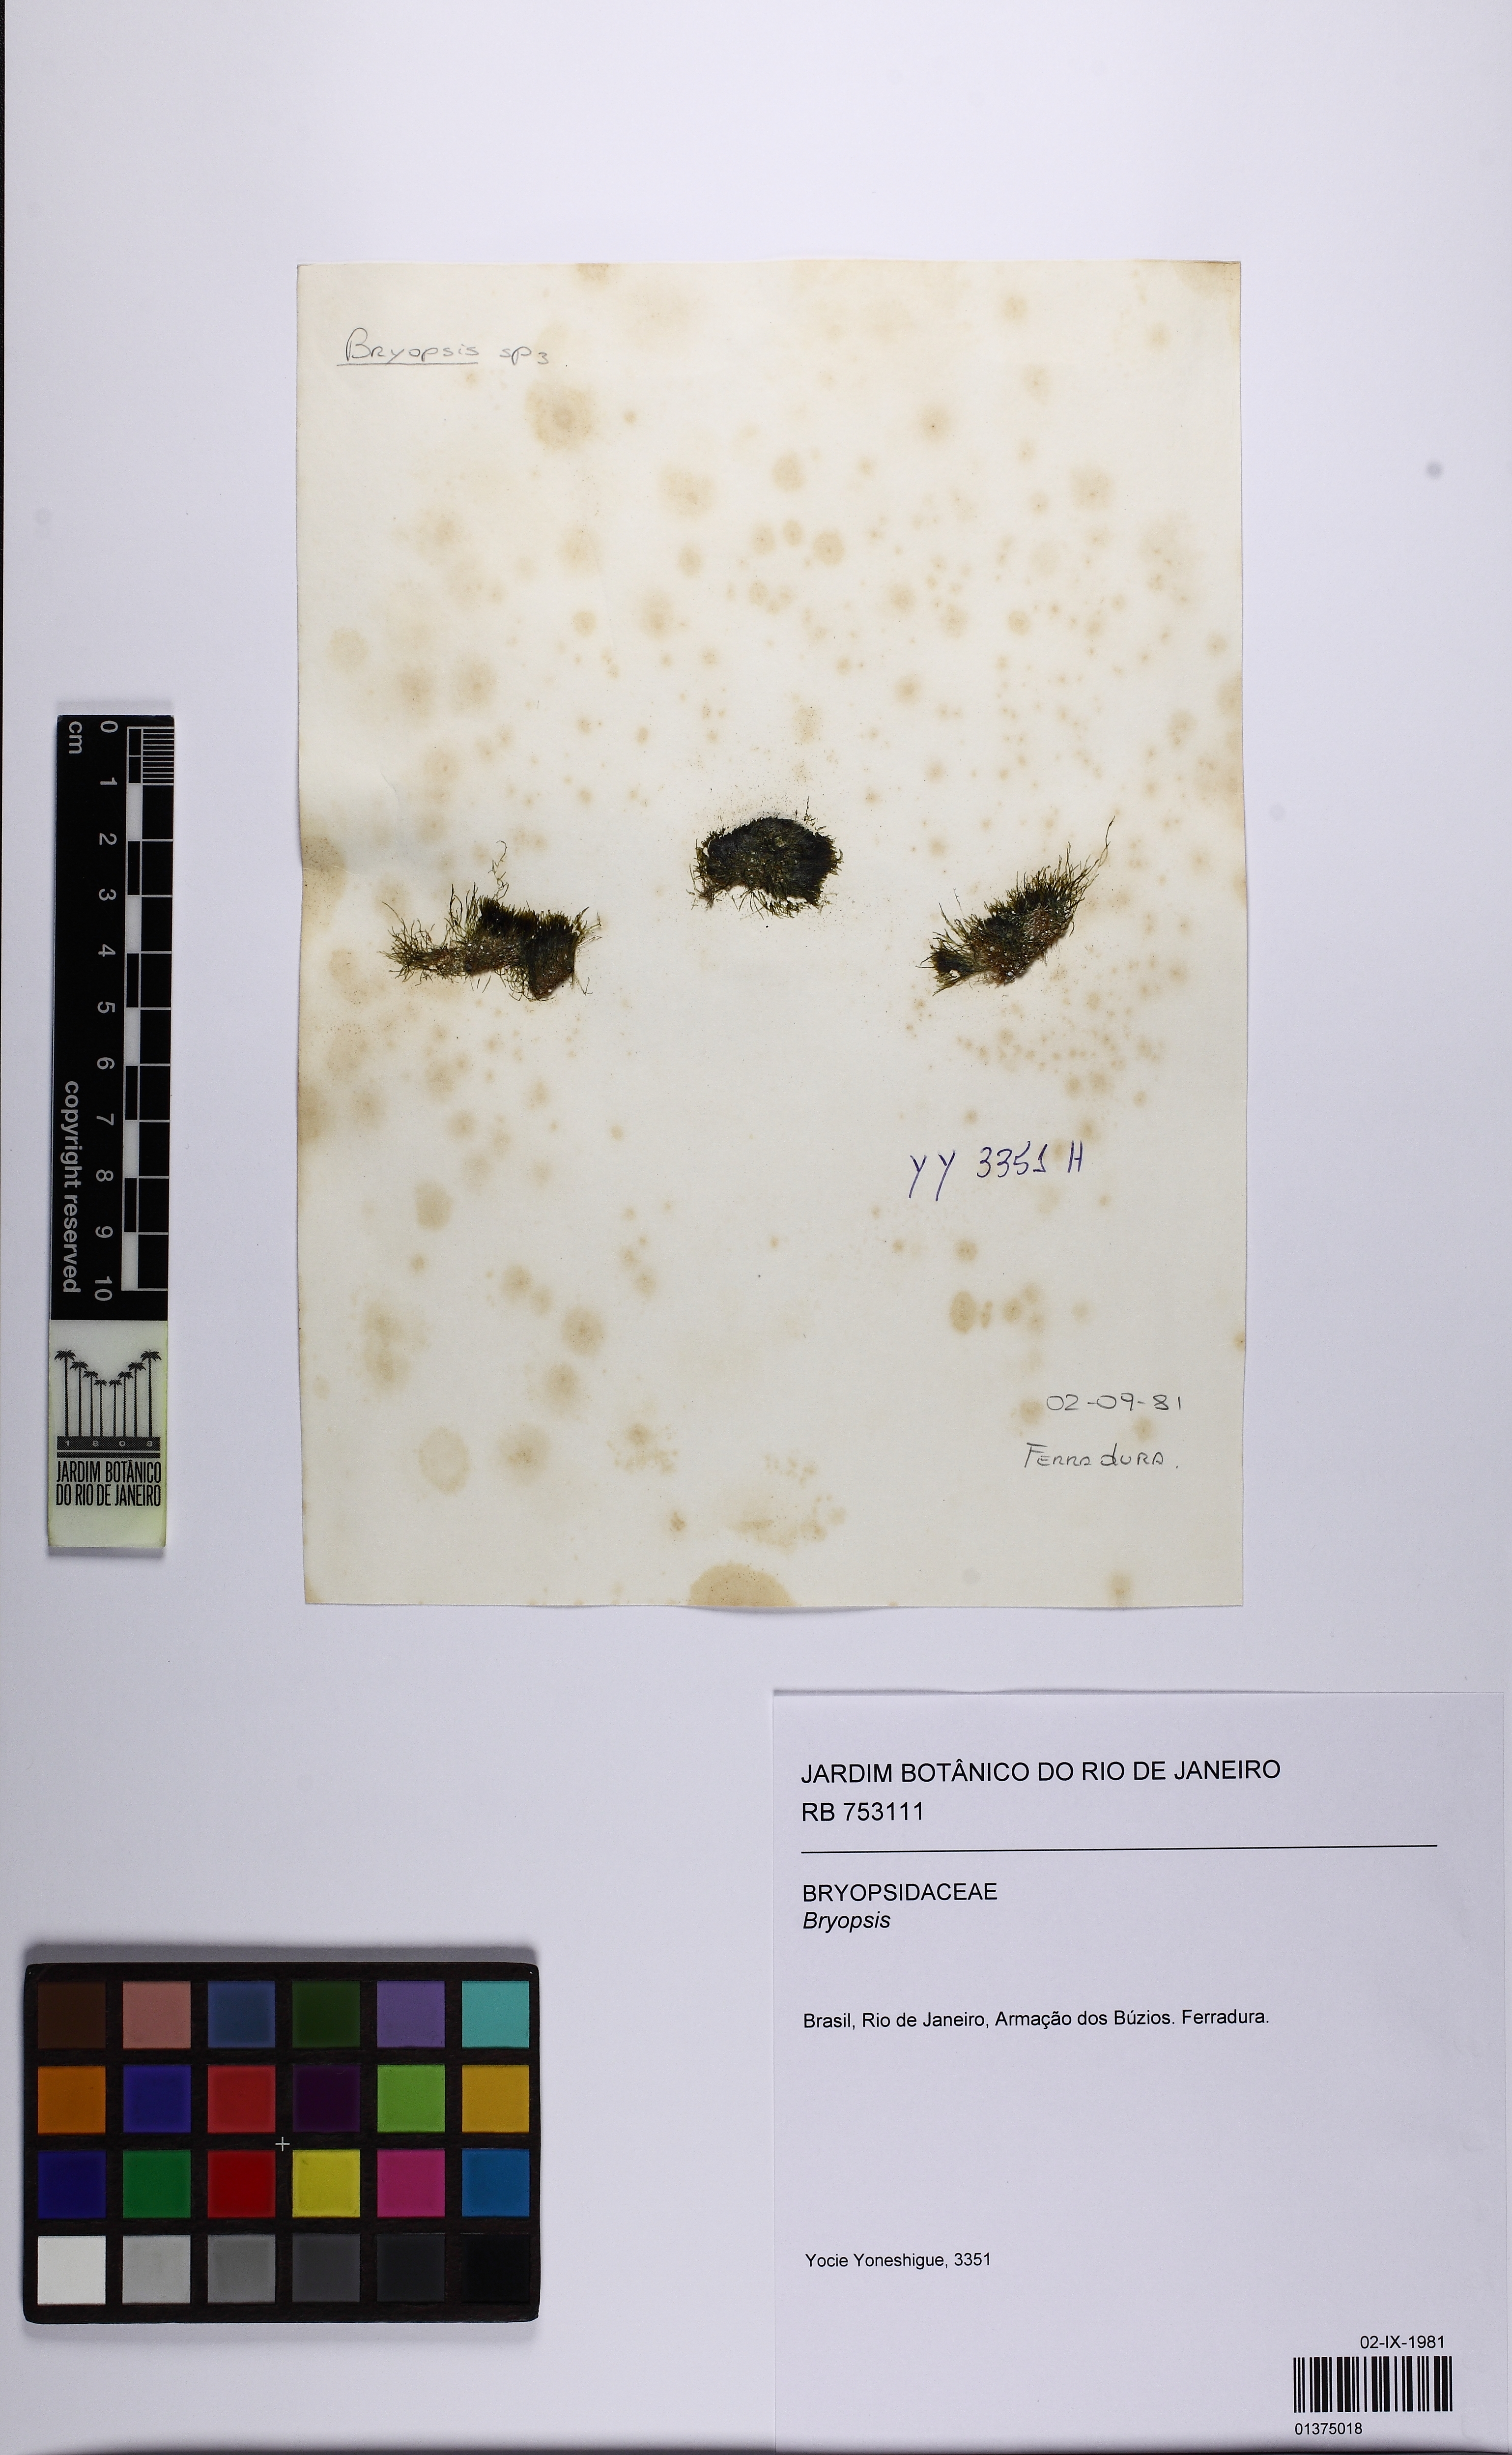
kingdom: Plantae
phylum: Chlorophyta
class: Ulvophyceae
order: Bryopsidales
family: Bryopsidaceae
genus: Bryopsis
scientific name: Bryopsis
